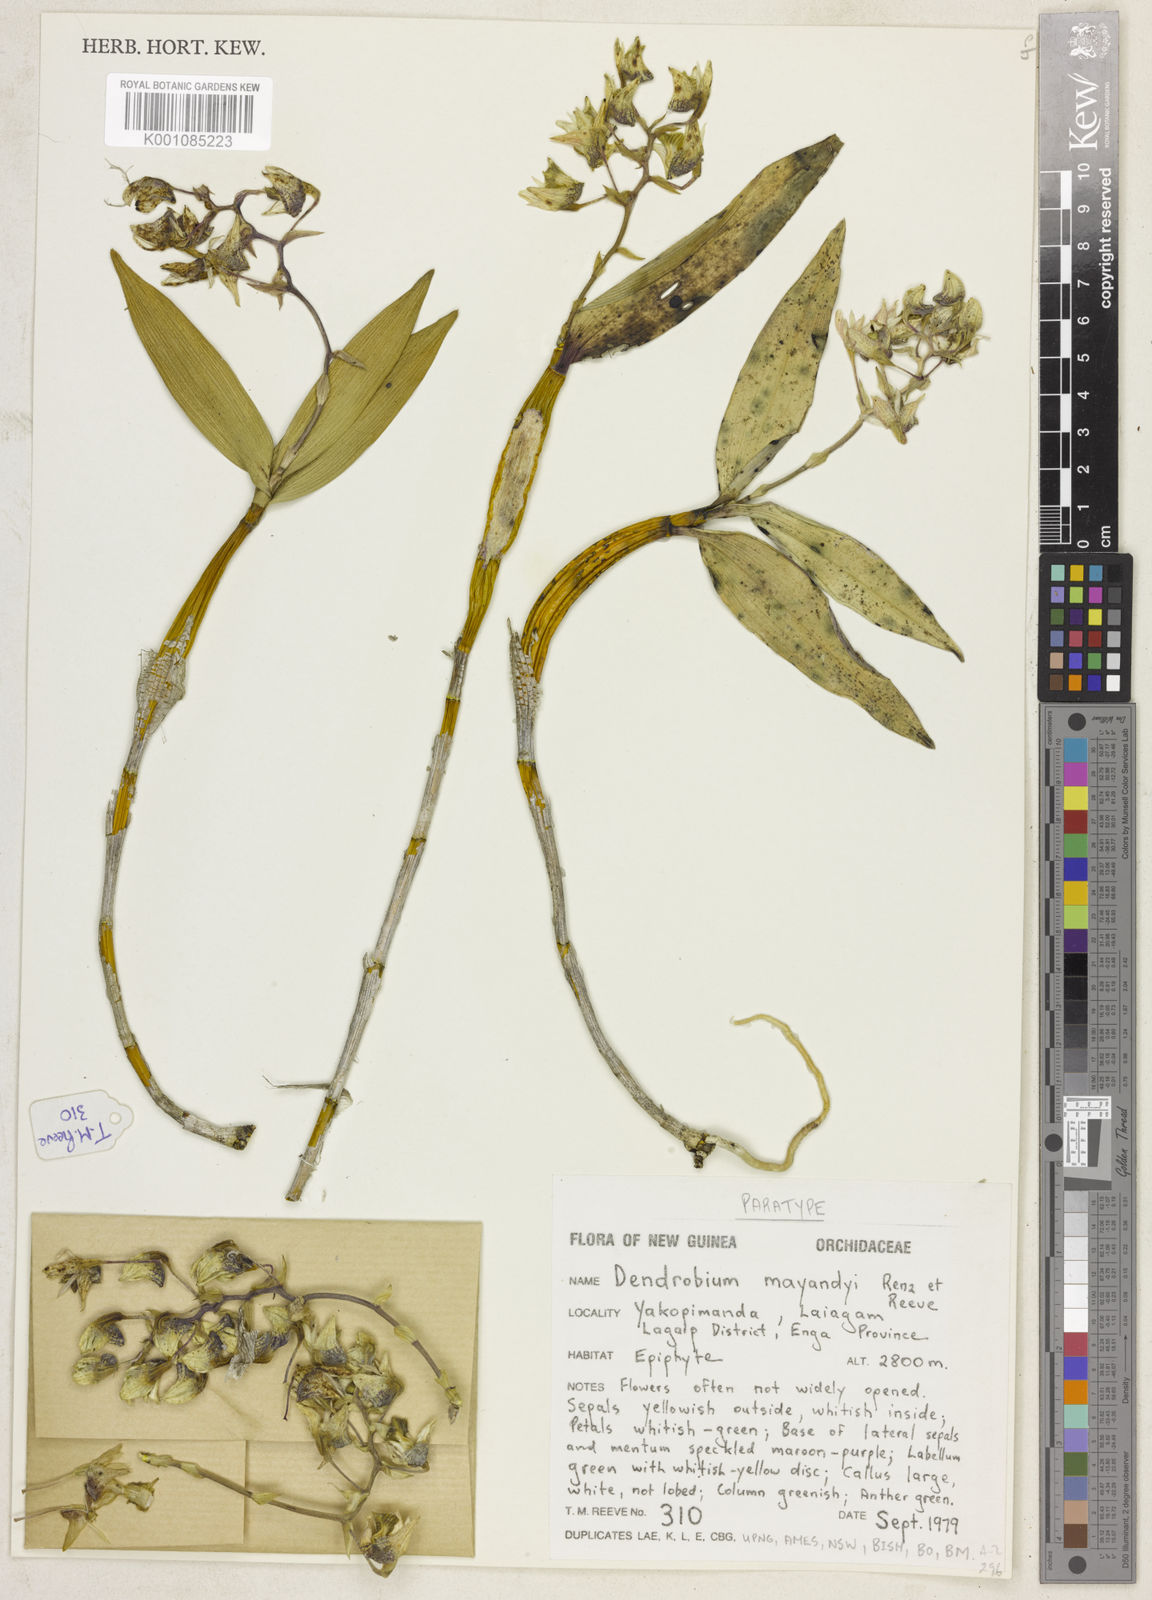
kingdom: Plantae
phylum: Tracheophyta
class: Liliopsida
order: Asparagales
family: Orchidaceae
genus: Dendrobium
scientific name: Dendrobium mayandyi
